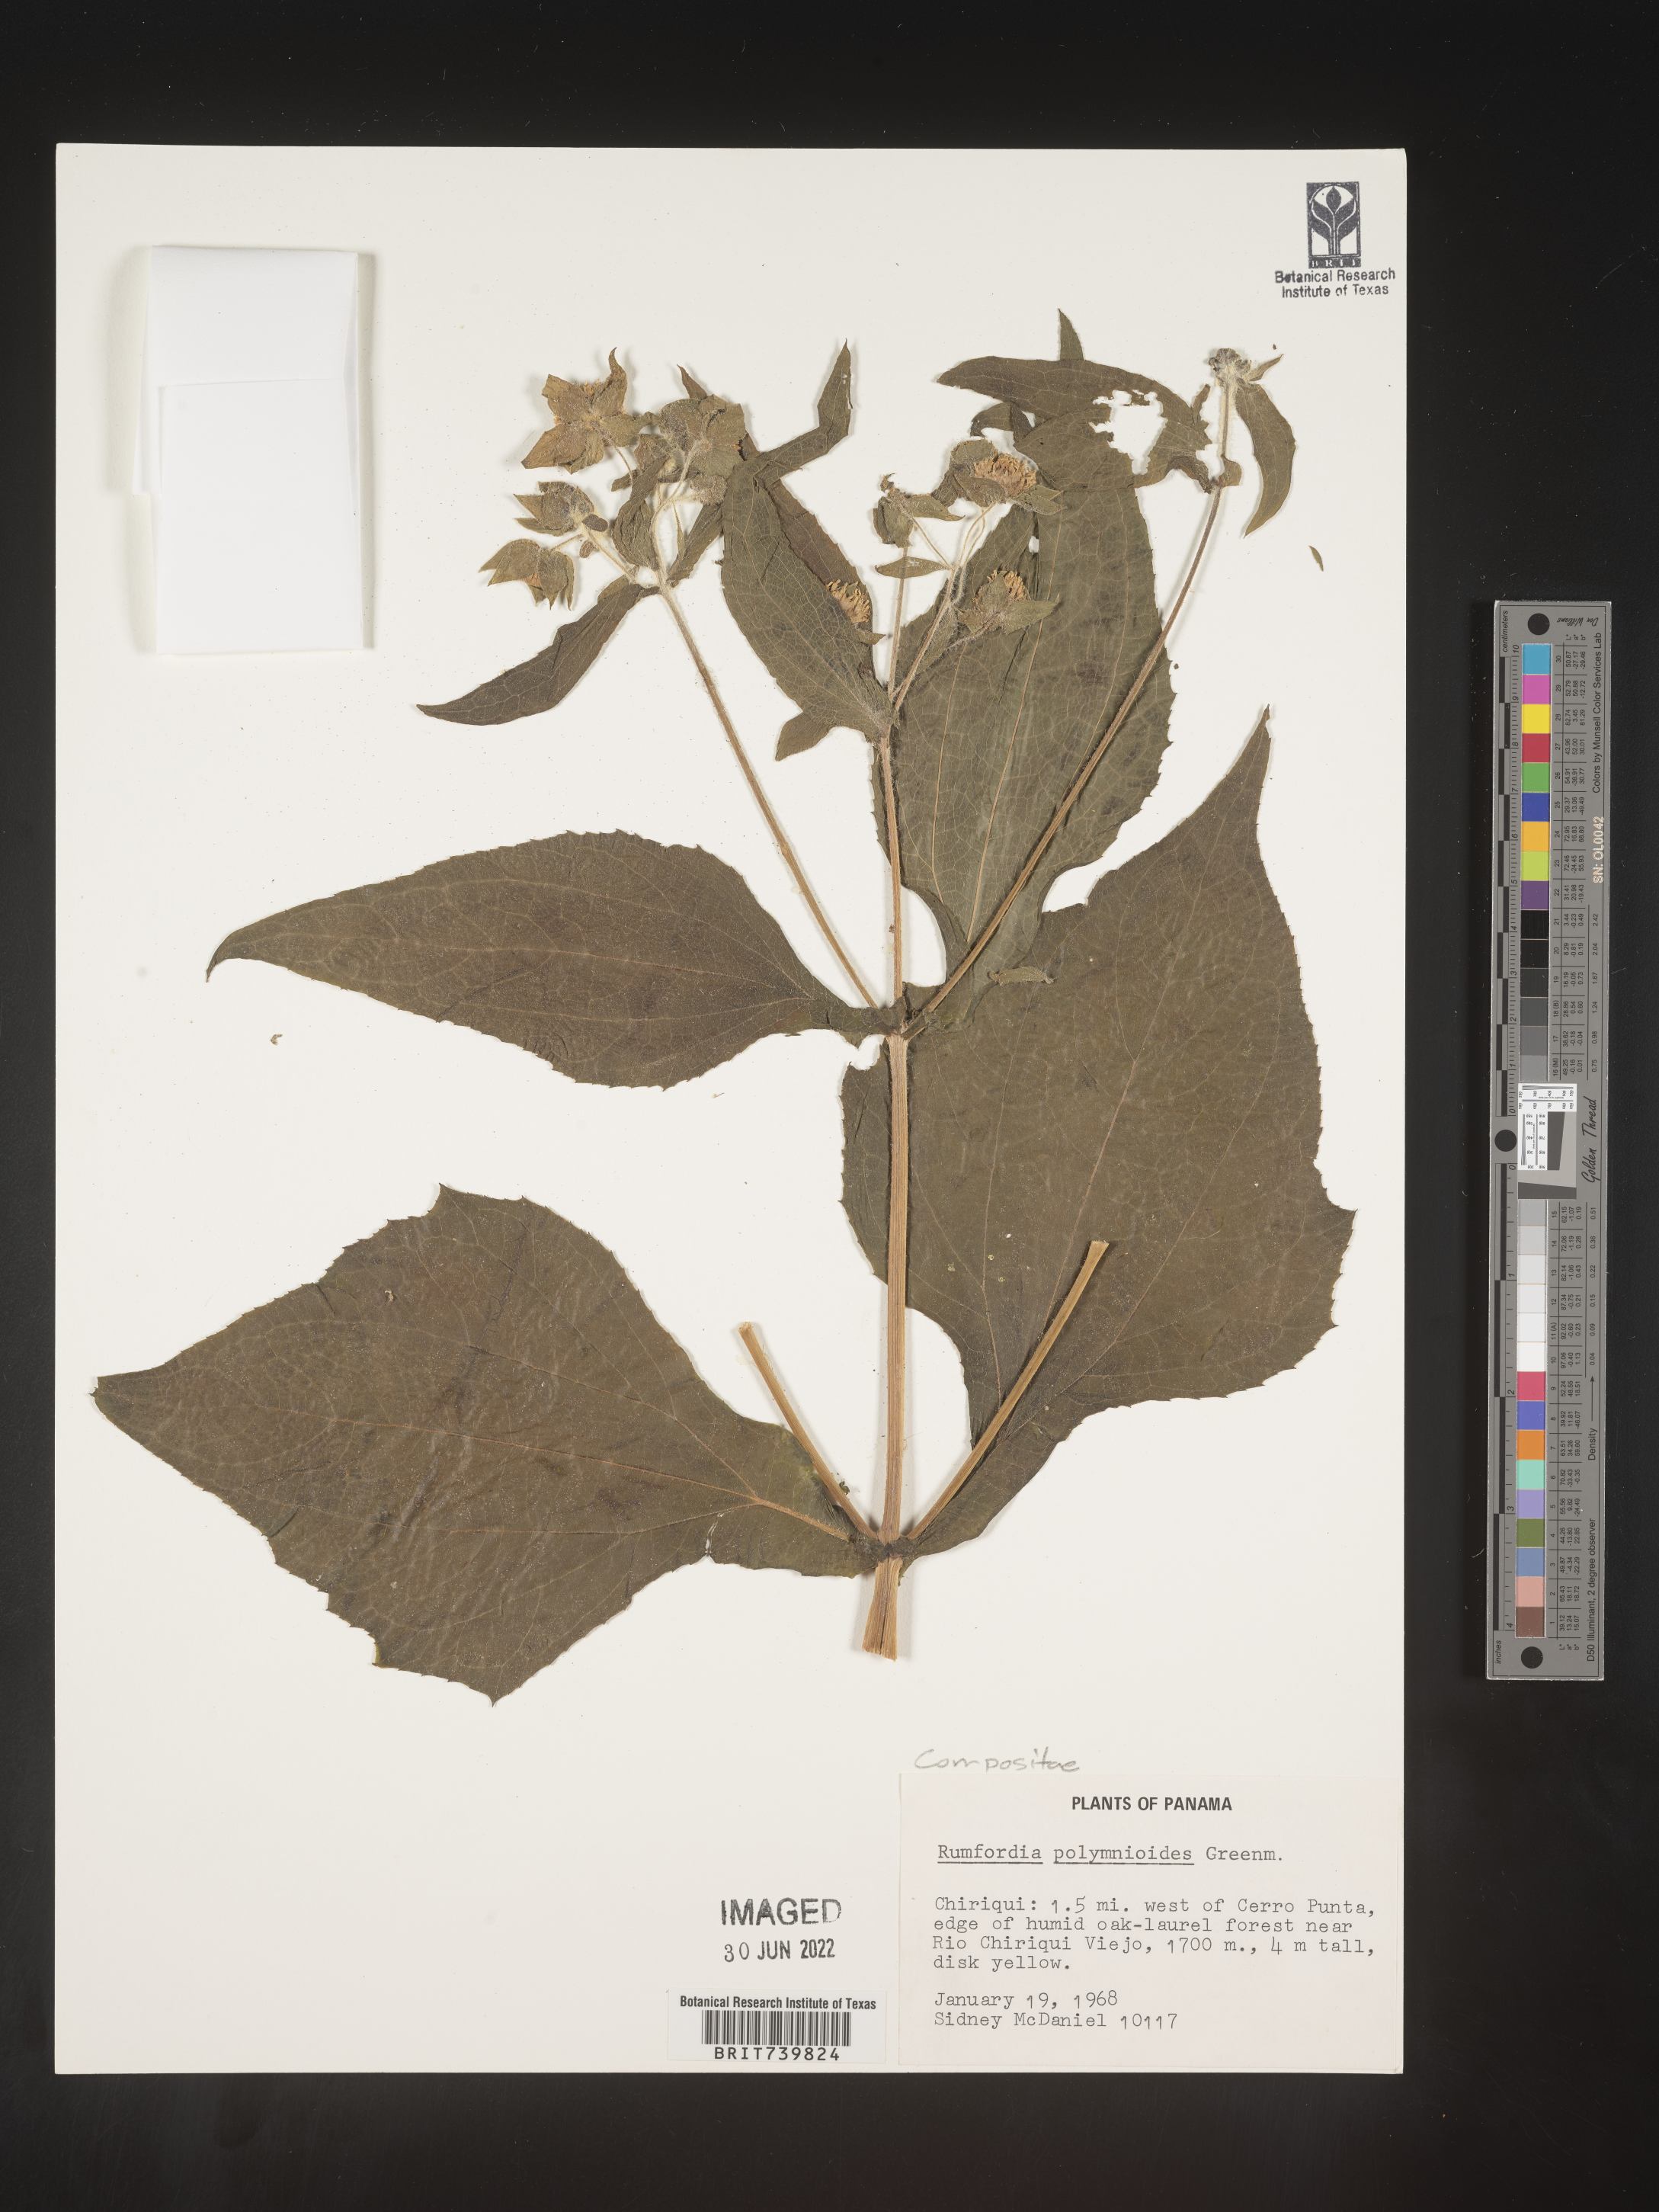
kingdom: Plantae
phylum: Tracheophyta
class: Magnoliopsida
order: Asterales
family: Asteraceae
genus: Rumfordia
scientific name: Rumfordia
